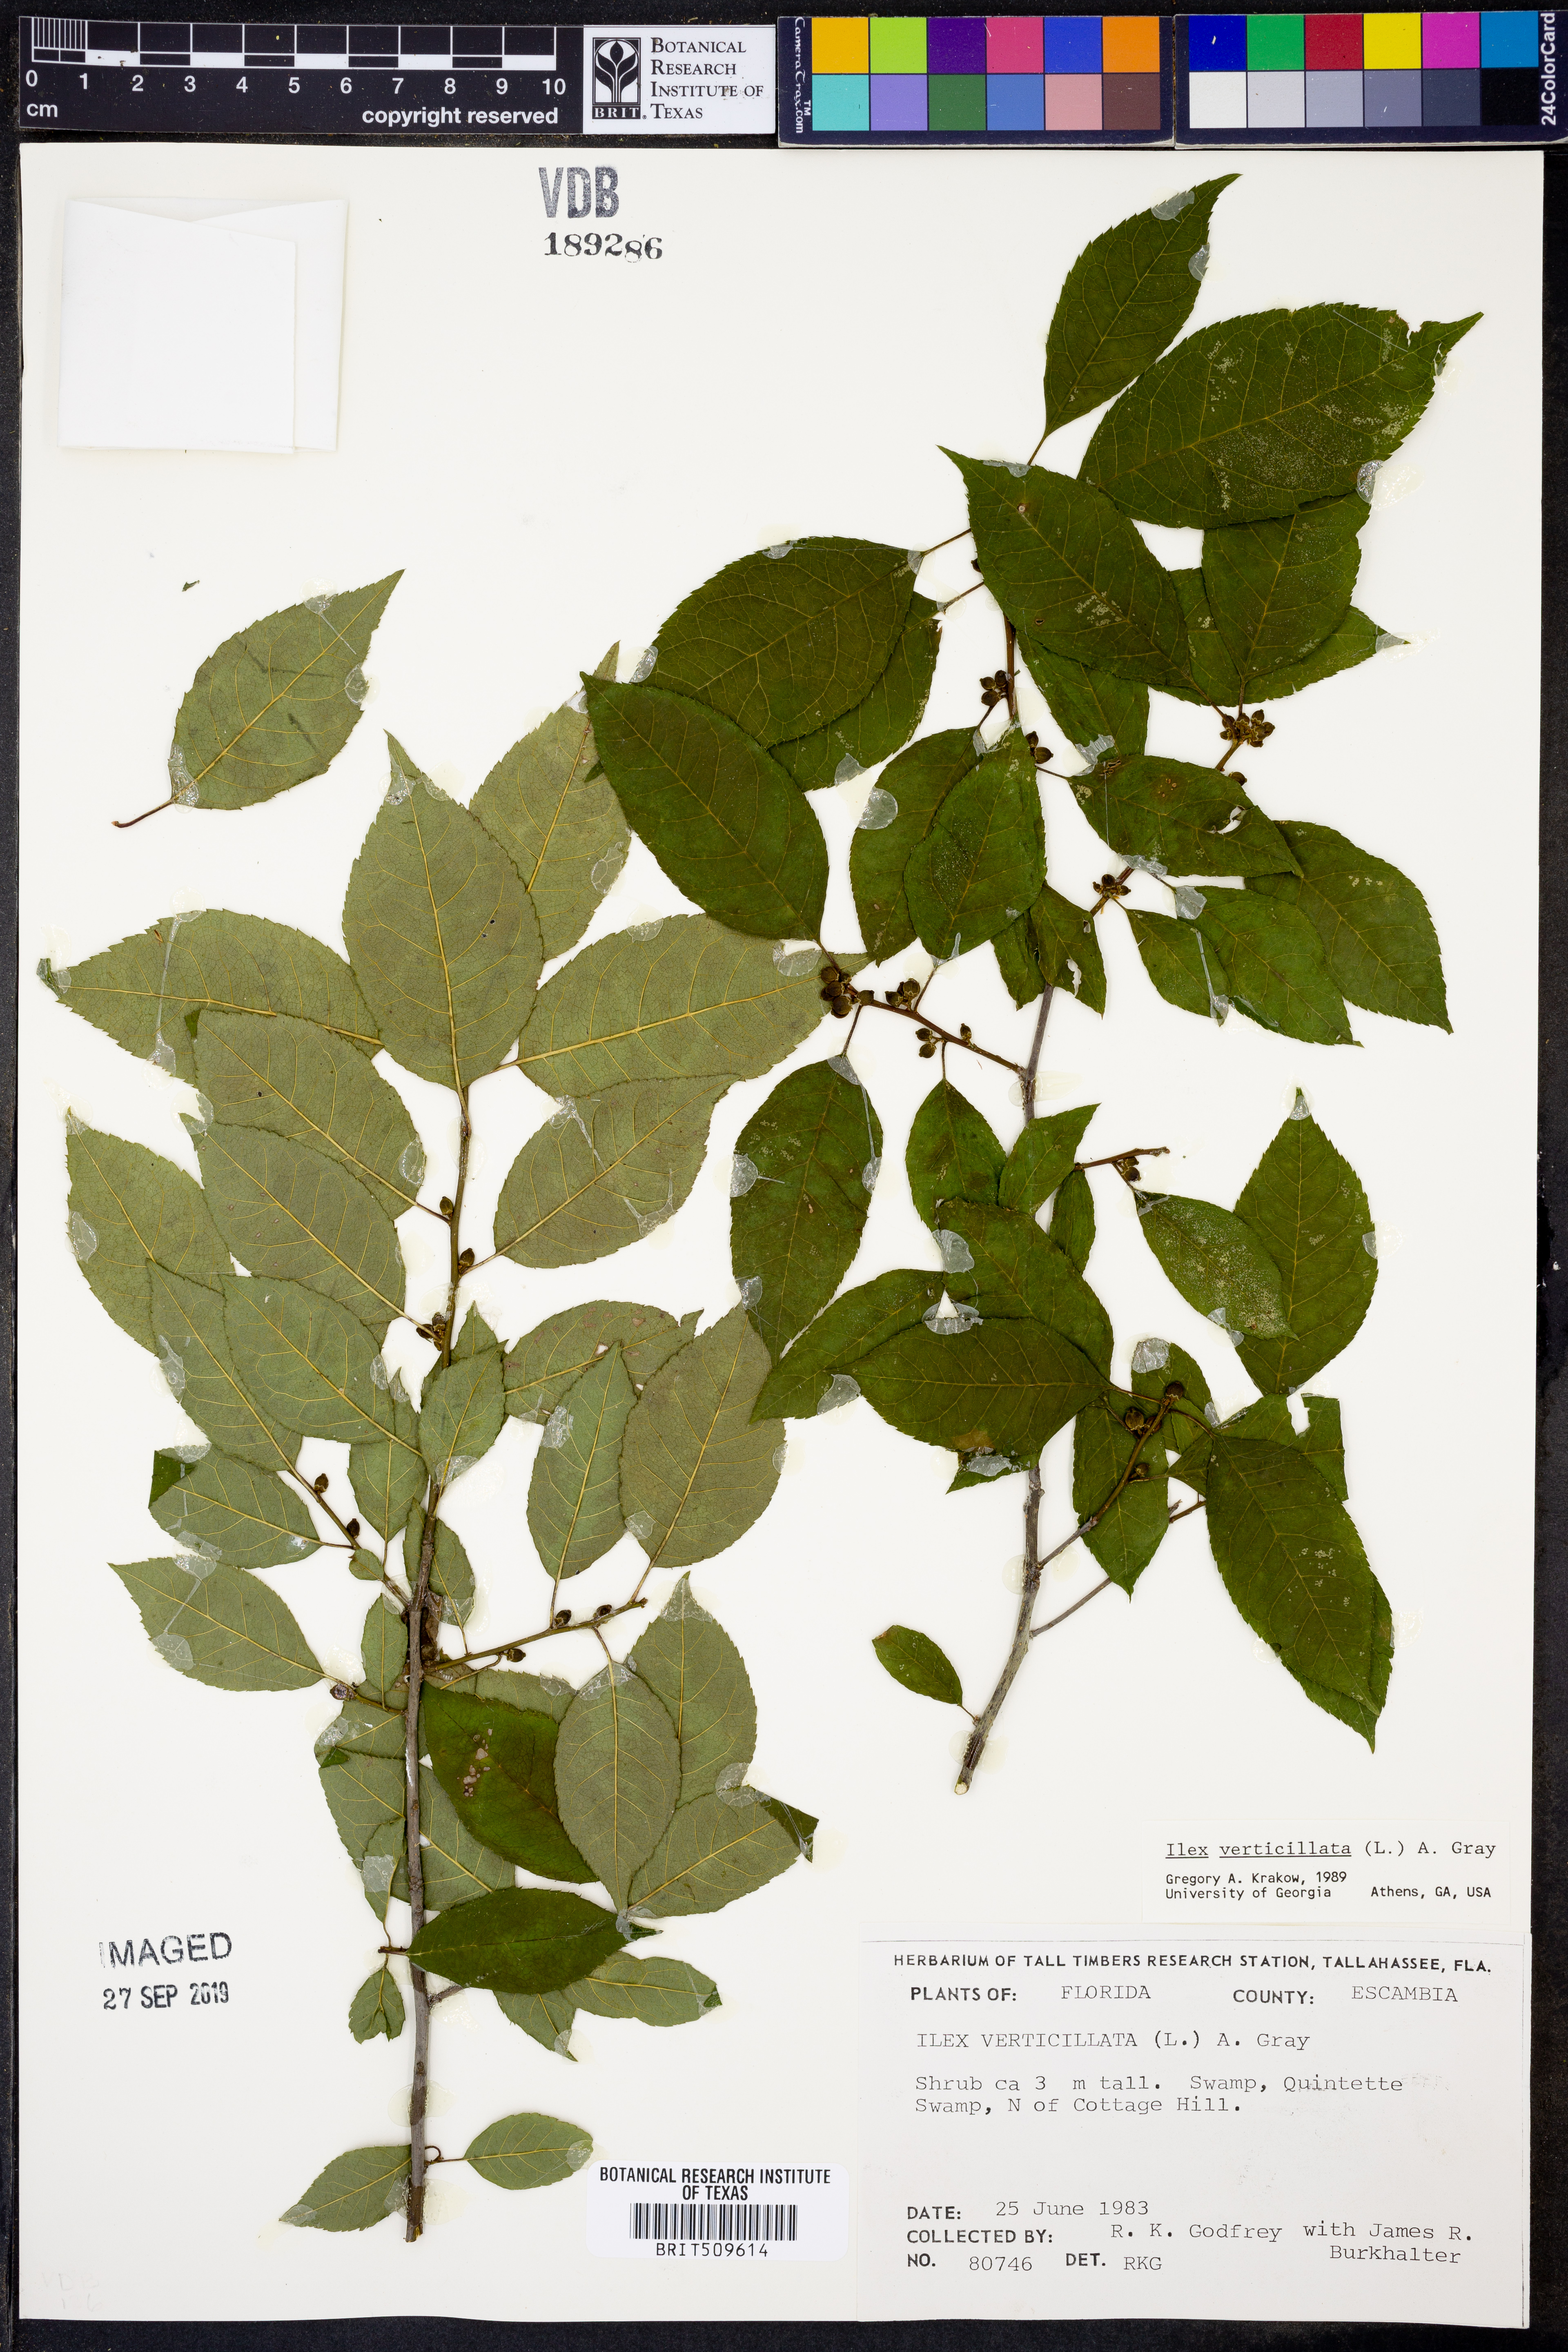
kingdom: Plantae
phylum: Tracheophyta
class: Magnoliopsida
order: Aquifoliales
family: Aquifoliaceae
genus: Ilex
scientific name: Ilex verticillata
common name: Virginia winterberry
